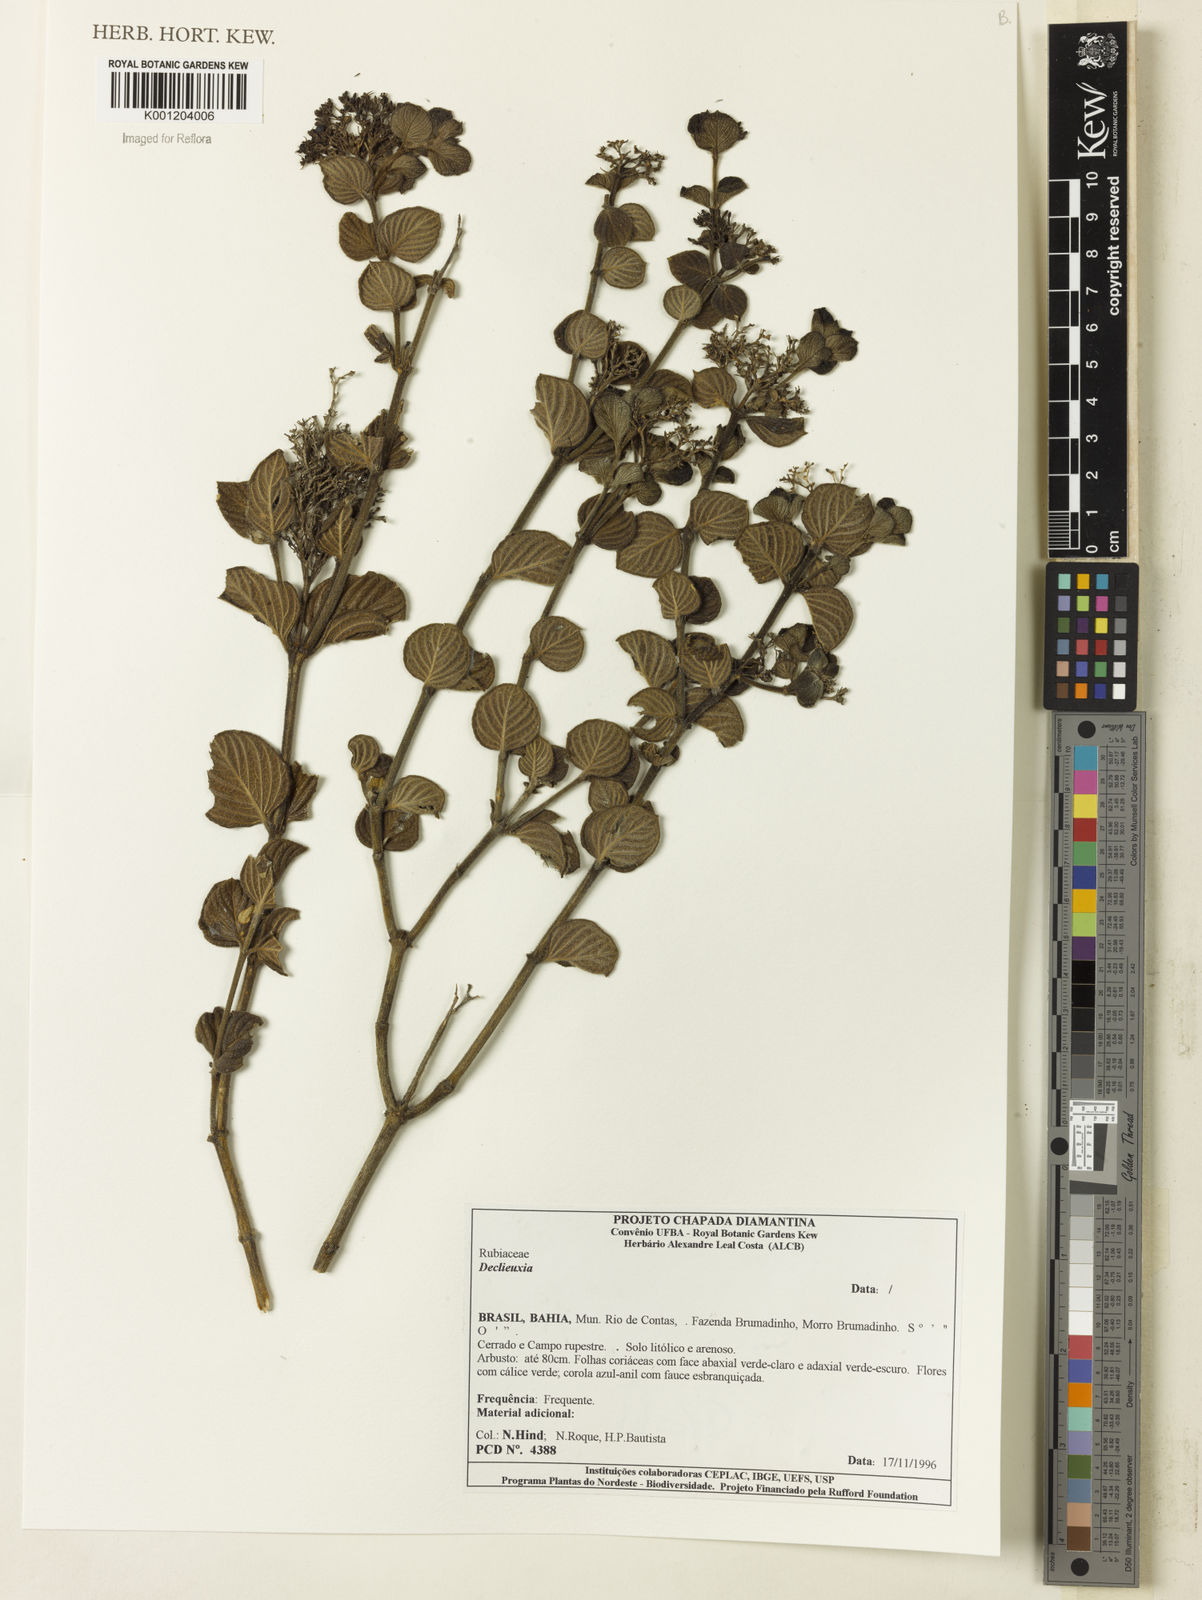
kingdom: Plantae
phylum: Tracheophyta
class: Magnoliopsida
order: Gentianales
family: Rubiaceae
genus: Declieuxia
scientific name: Declieuxia
